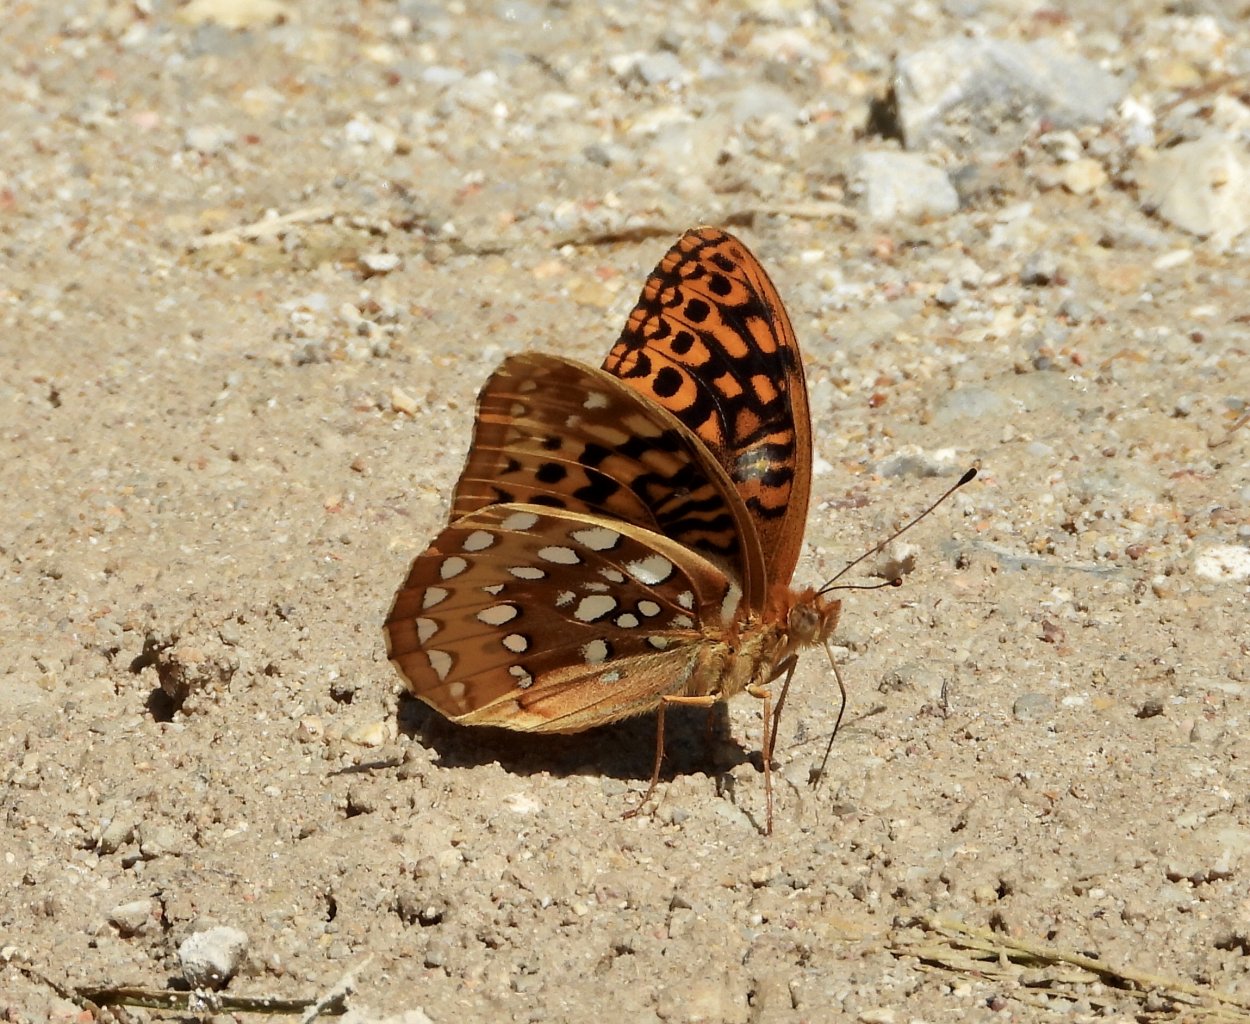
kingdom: Animalia
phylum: Arthropoda
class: Insecta
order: Lepidoptera
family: Nymphalidae
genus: Speyeria
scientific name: Speyeria cybele
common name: Great Spangled Fritillary
